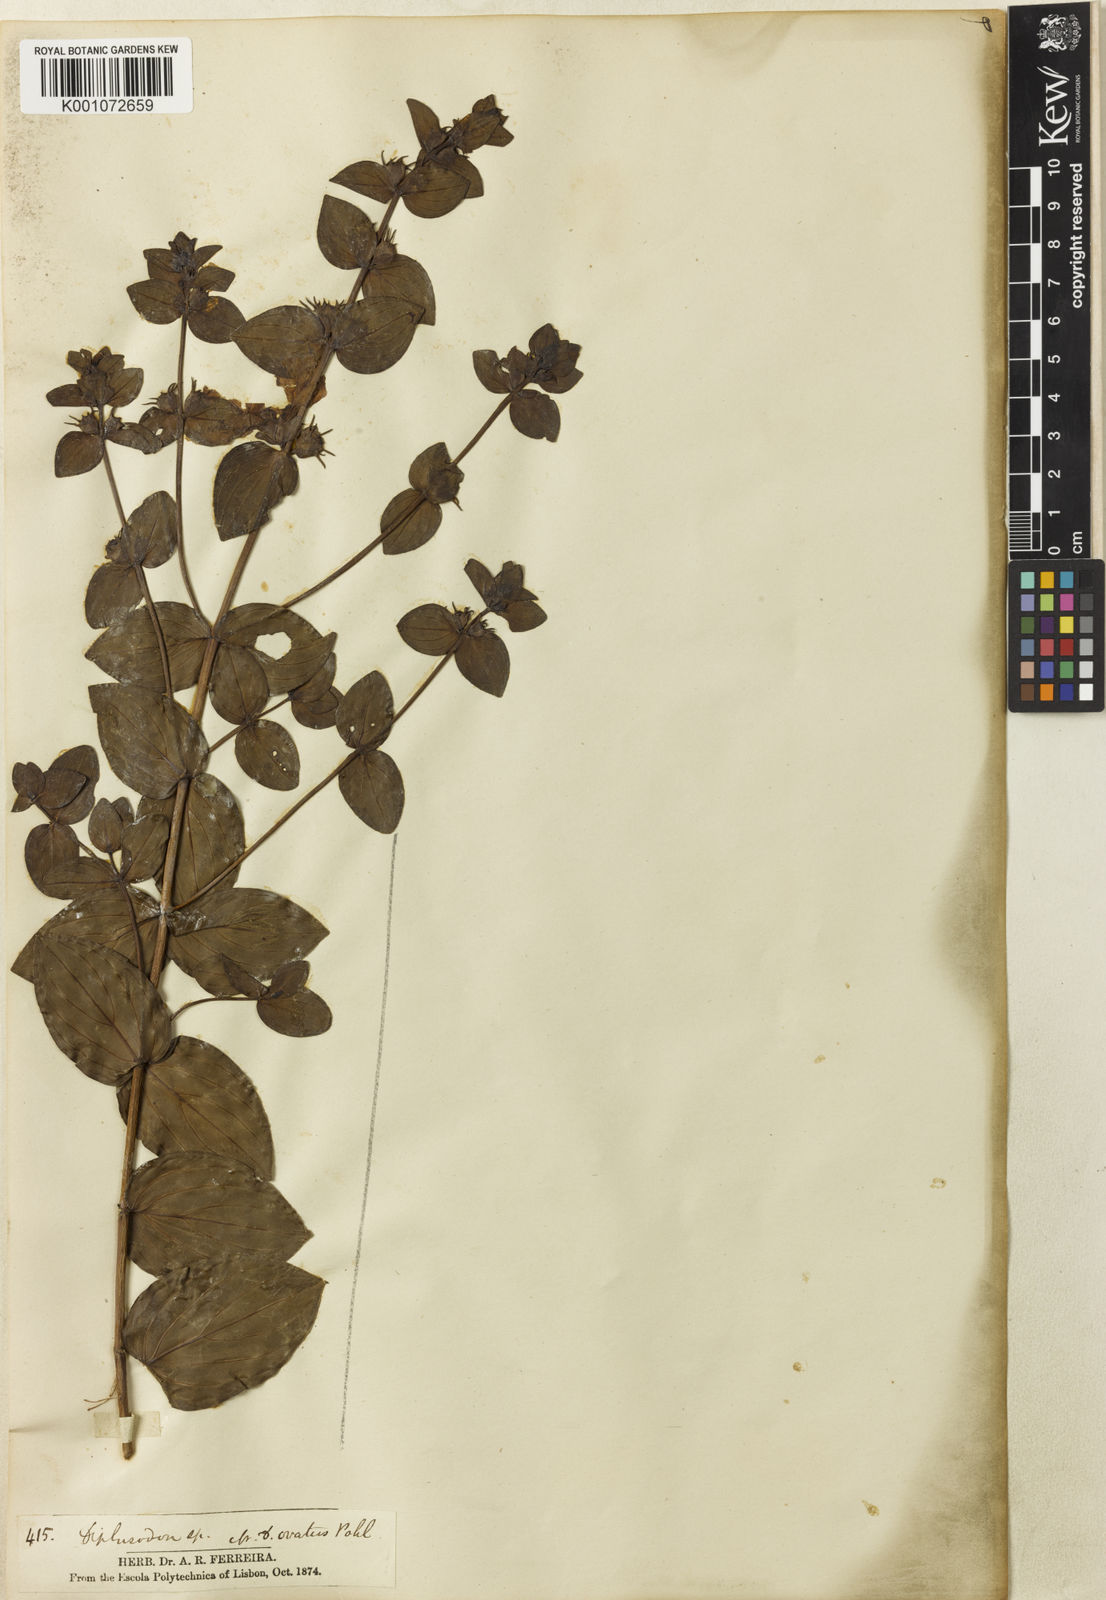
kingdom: Plantae
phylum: Tracheophyta
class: Magnoliopsida
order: Myrtales
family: Lythraceae
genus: Diplusodon
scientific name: Diplusodon speciosus
